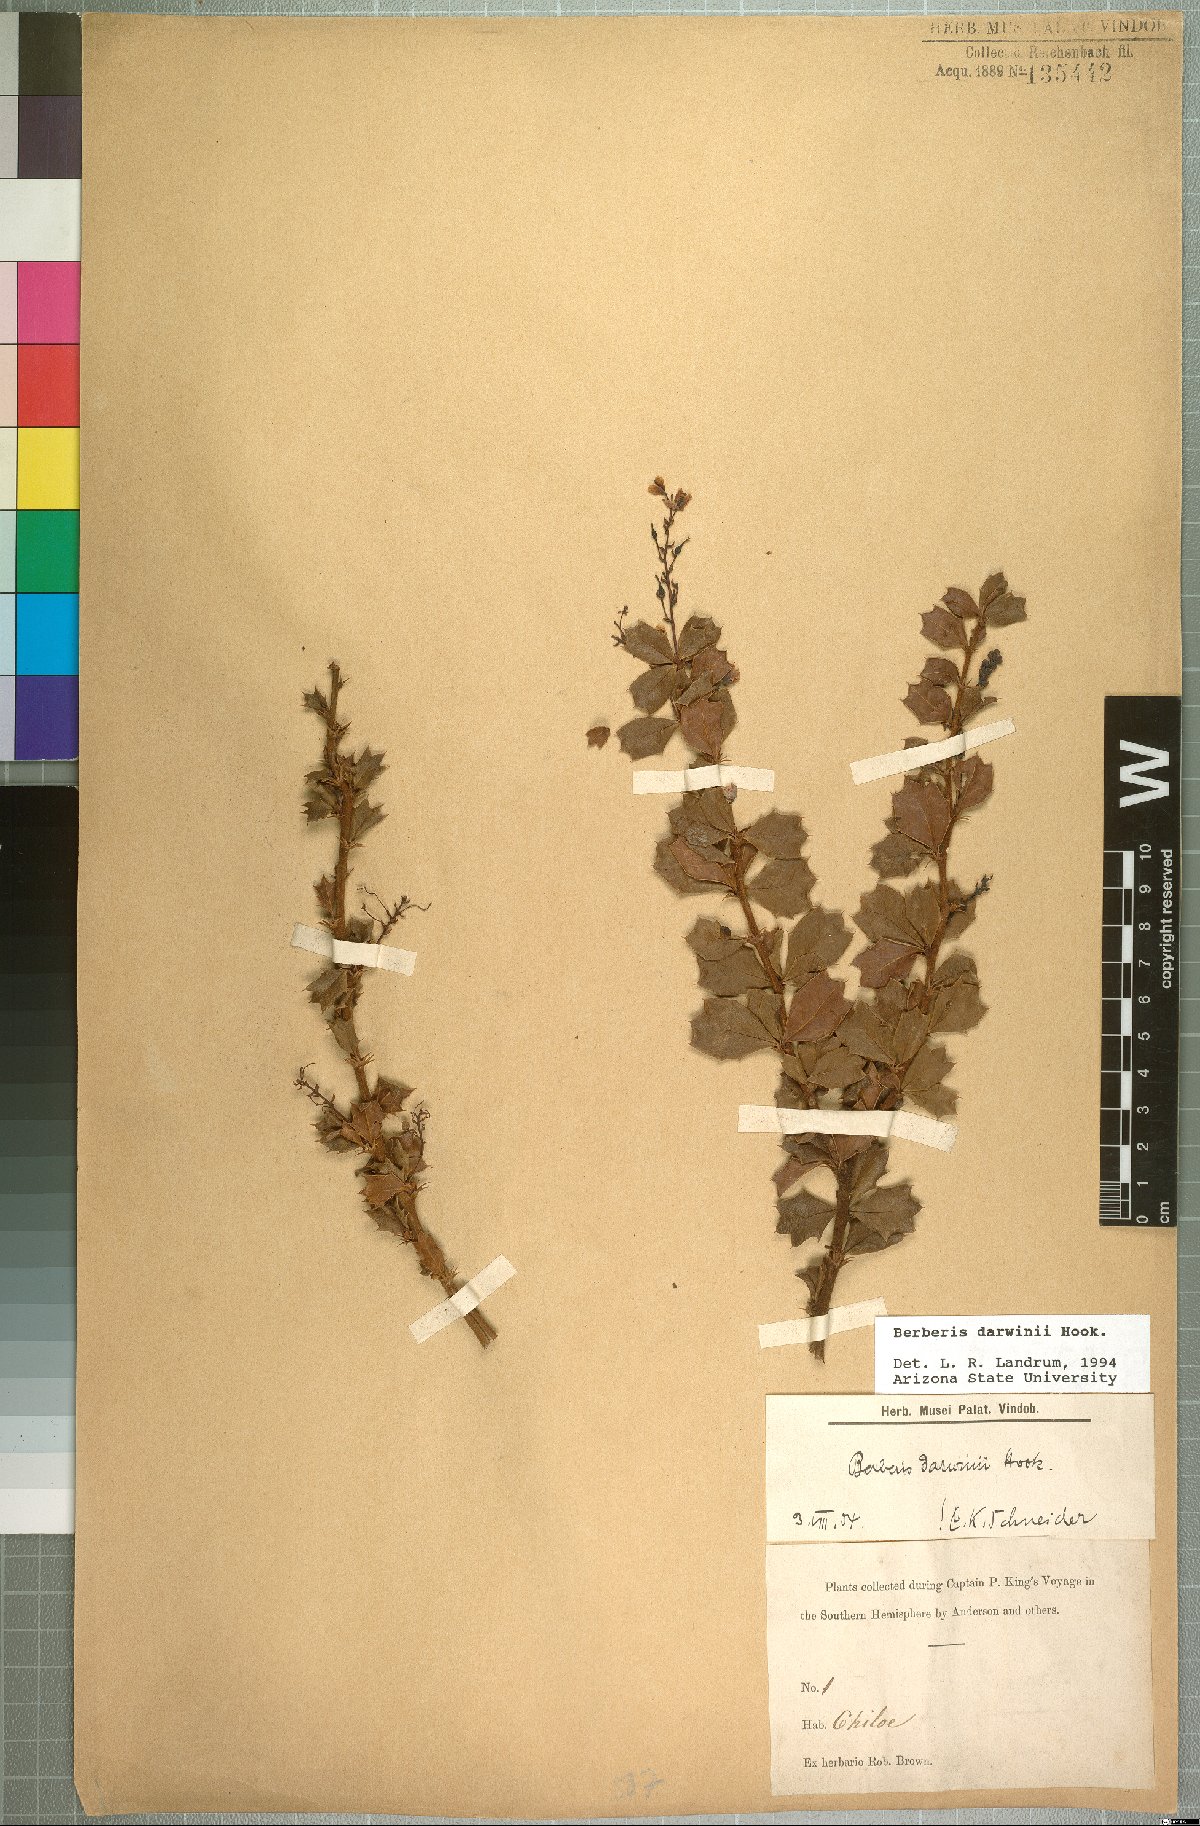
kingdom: Plantae
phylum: Tracheophyta
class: Magnoliopsida
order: Ranunculales
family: Berberidaceae
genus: Berberis
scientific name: Berberis darwinii
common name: Darwin's barberry
